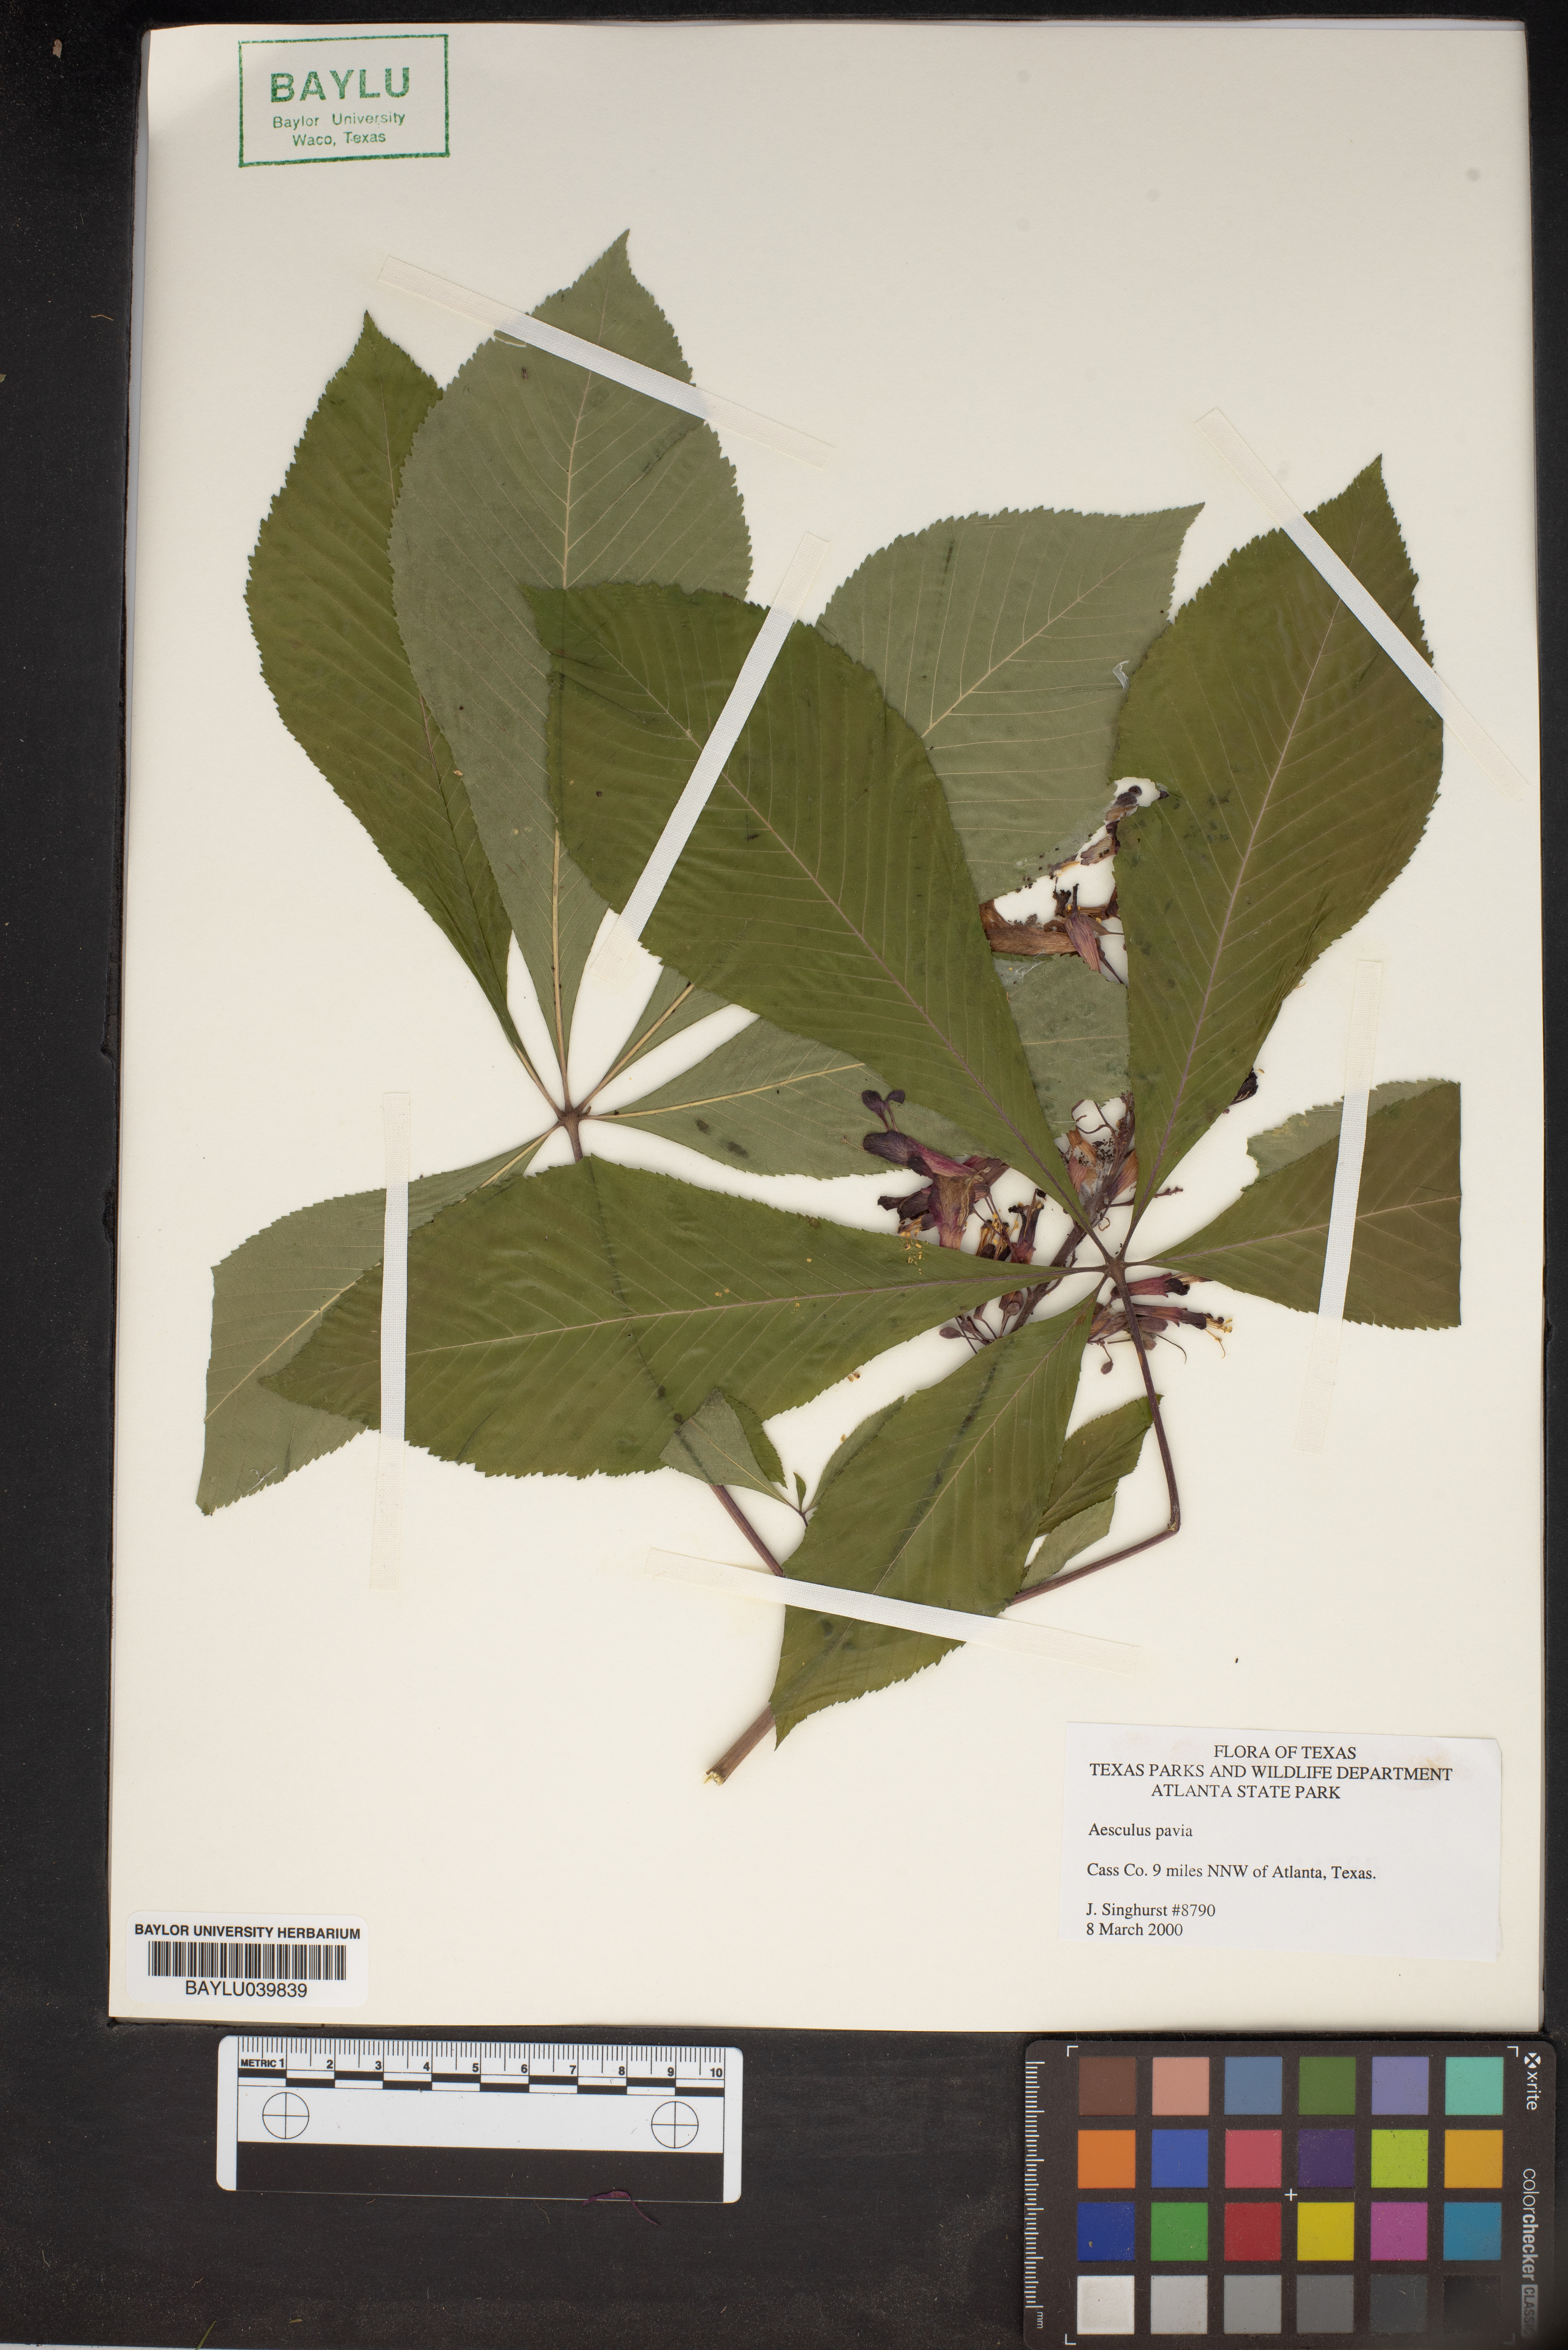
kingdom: Plantae
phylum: Tracheophyta
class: Magnoliopsida
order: Sapindales
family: Sapindaceae
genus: Aesculus
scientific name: Aesculus pavia
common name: Red buckeye
